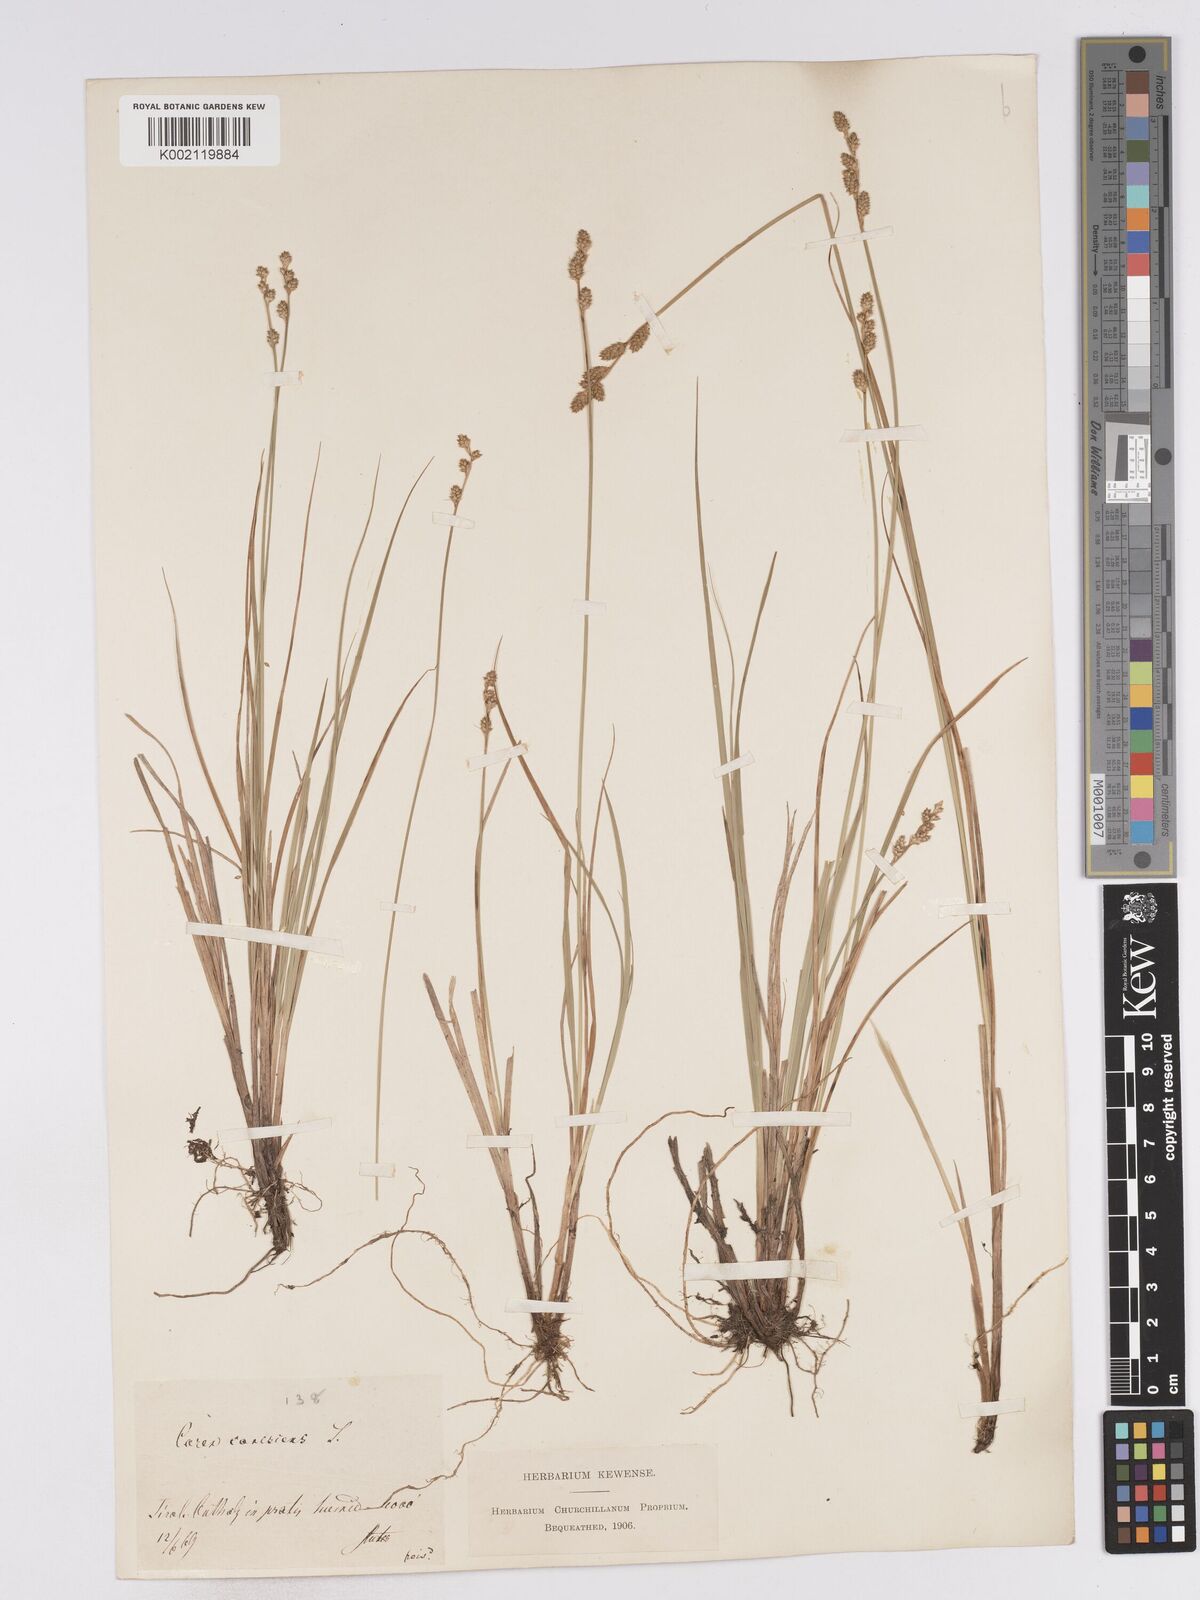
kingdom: Plantae
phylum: Tracheophyta
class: Liliopsida
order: Poales
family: Cyperaceae
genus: Carex
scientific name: Carex curta
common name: White sedge
